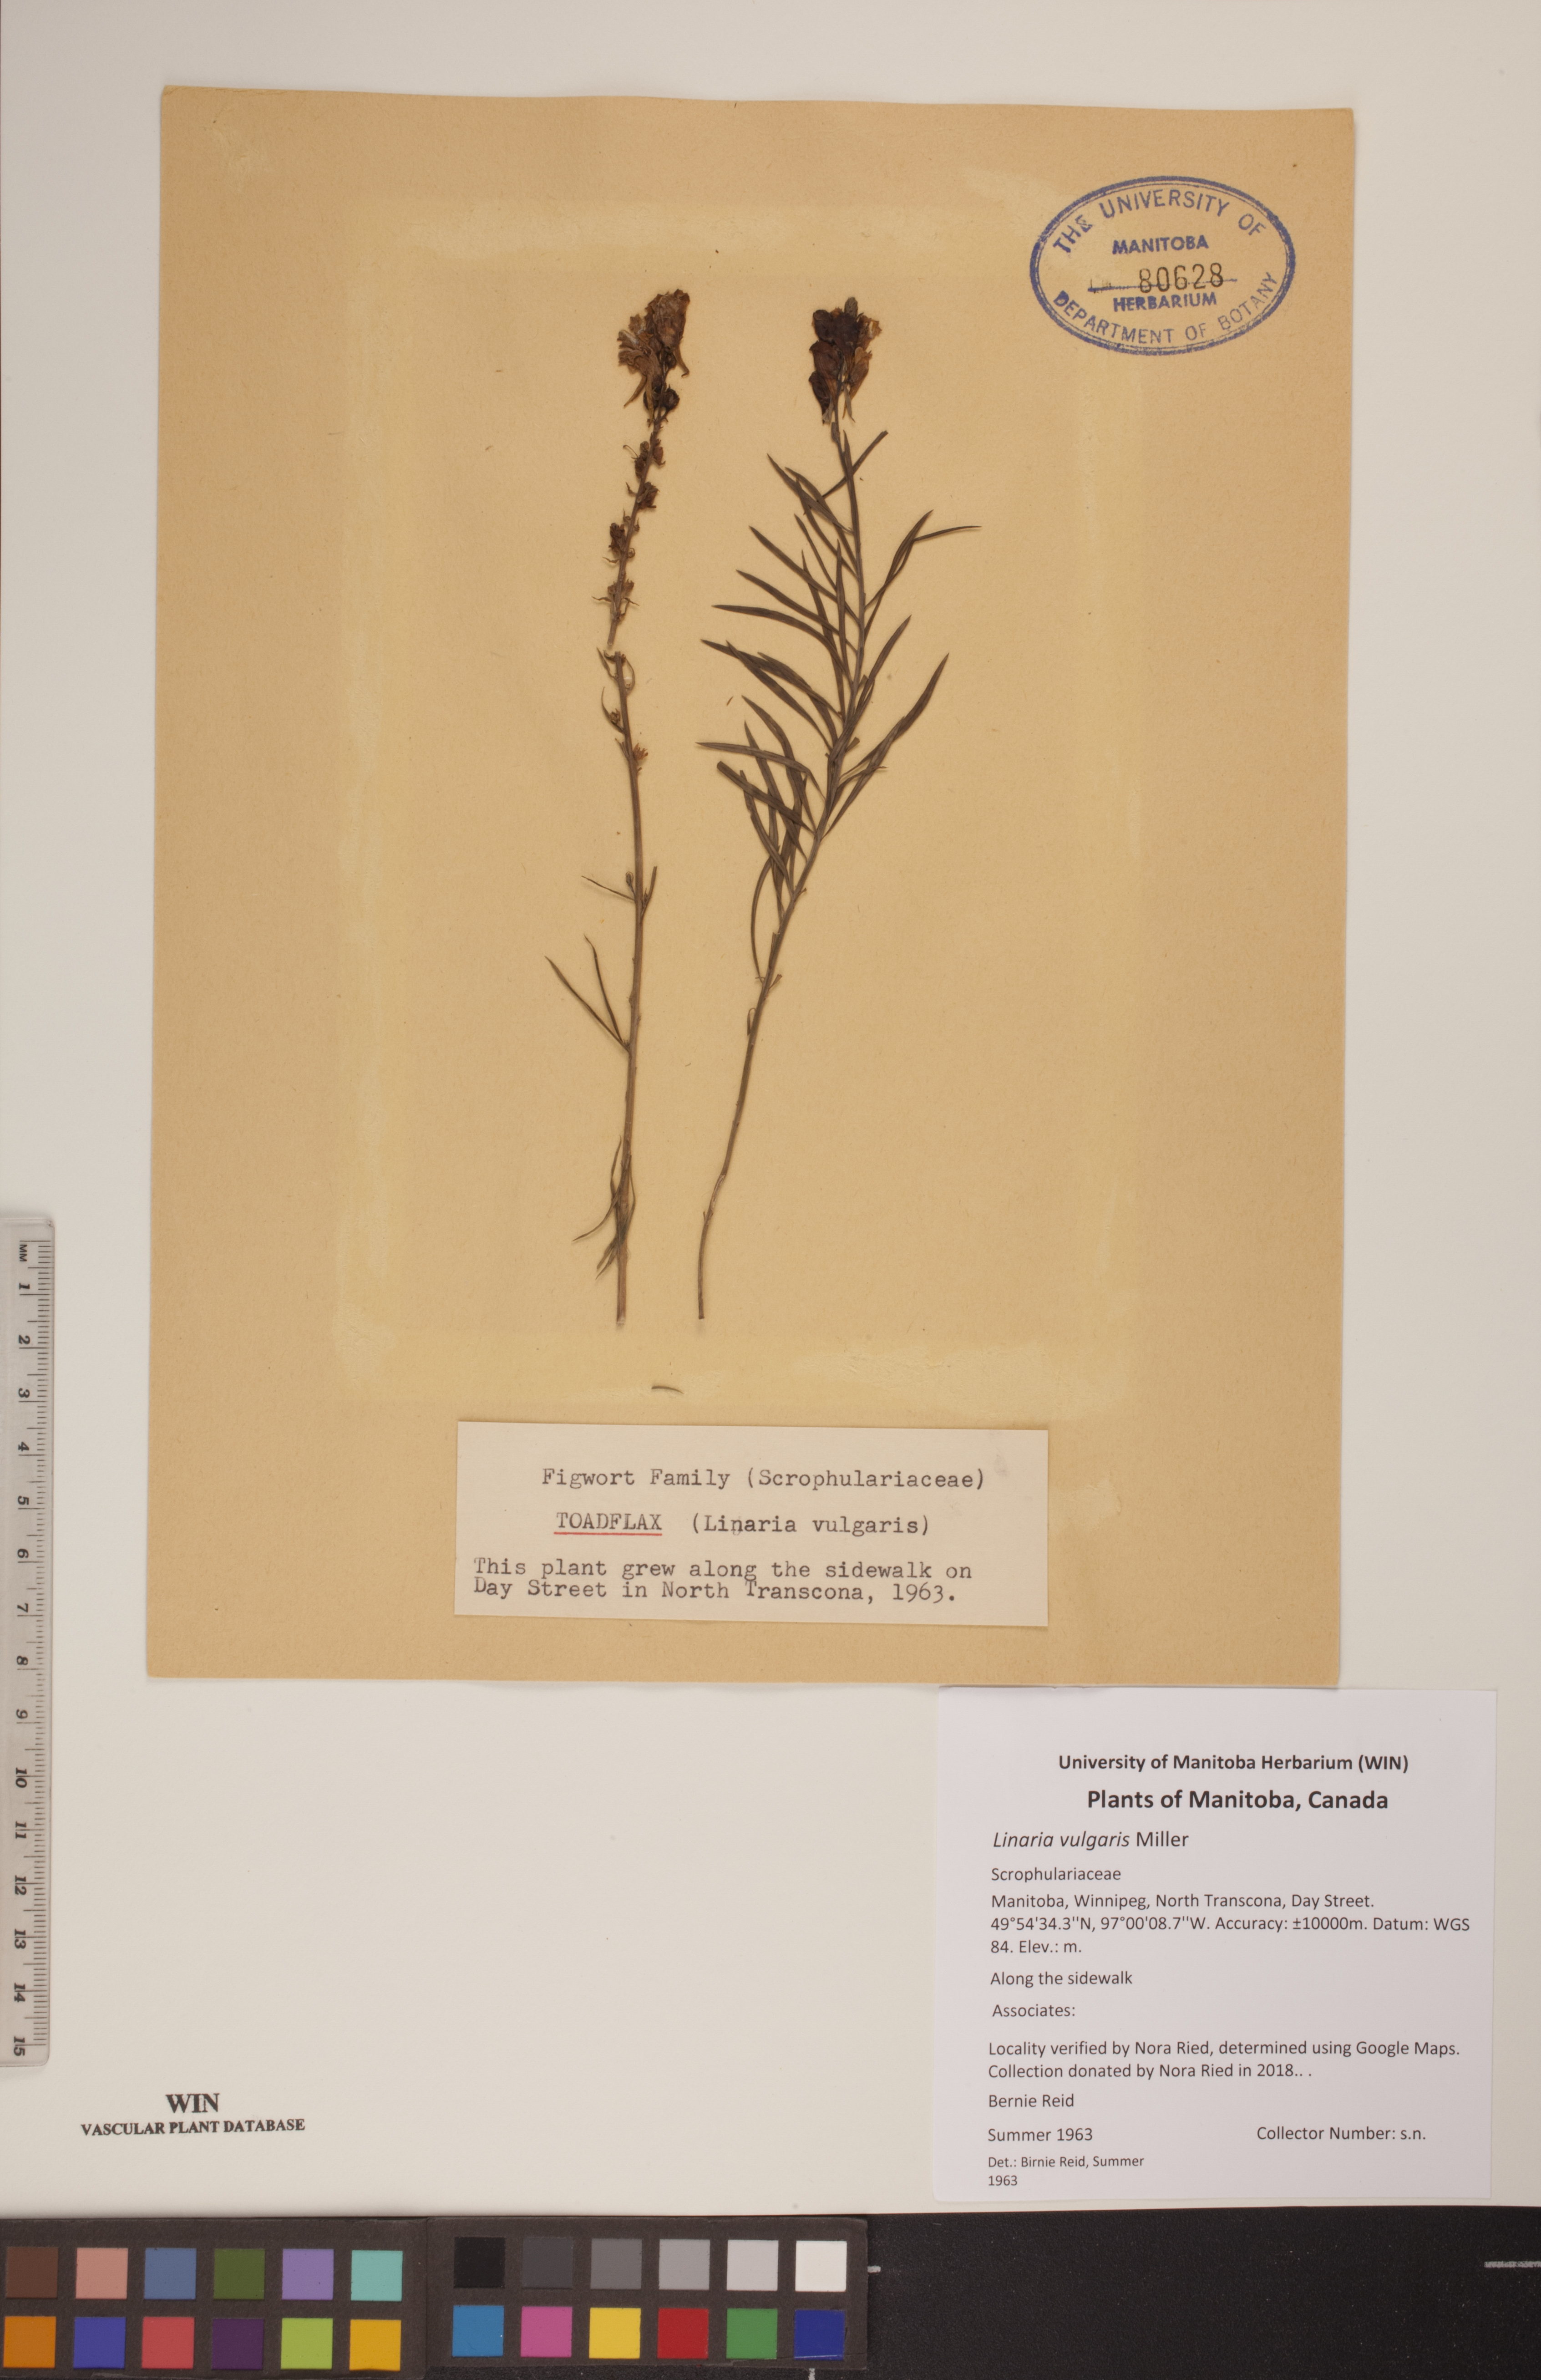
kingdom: Plantae
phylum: Tracheophyta
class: Magnoliopsida
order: Lamiales
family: Plantaginaceae
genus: Linaria
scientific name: Linaria vulgaris
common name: Butter and eggs
